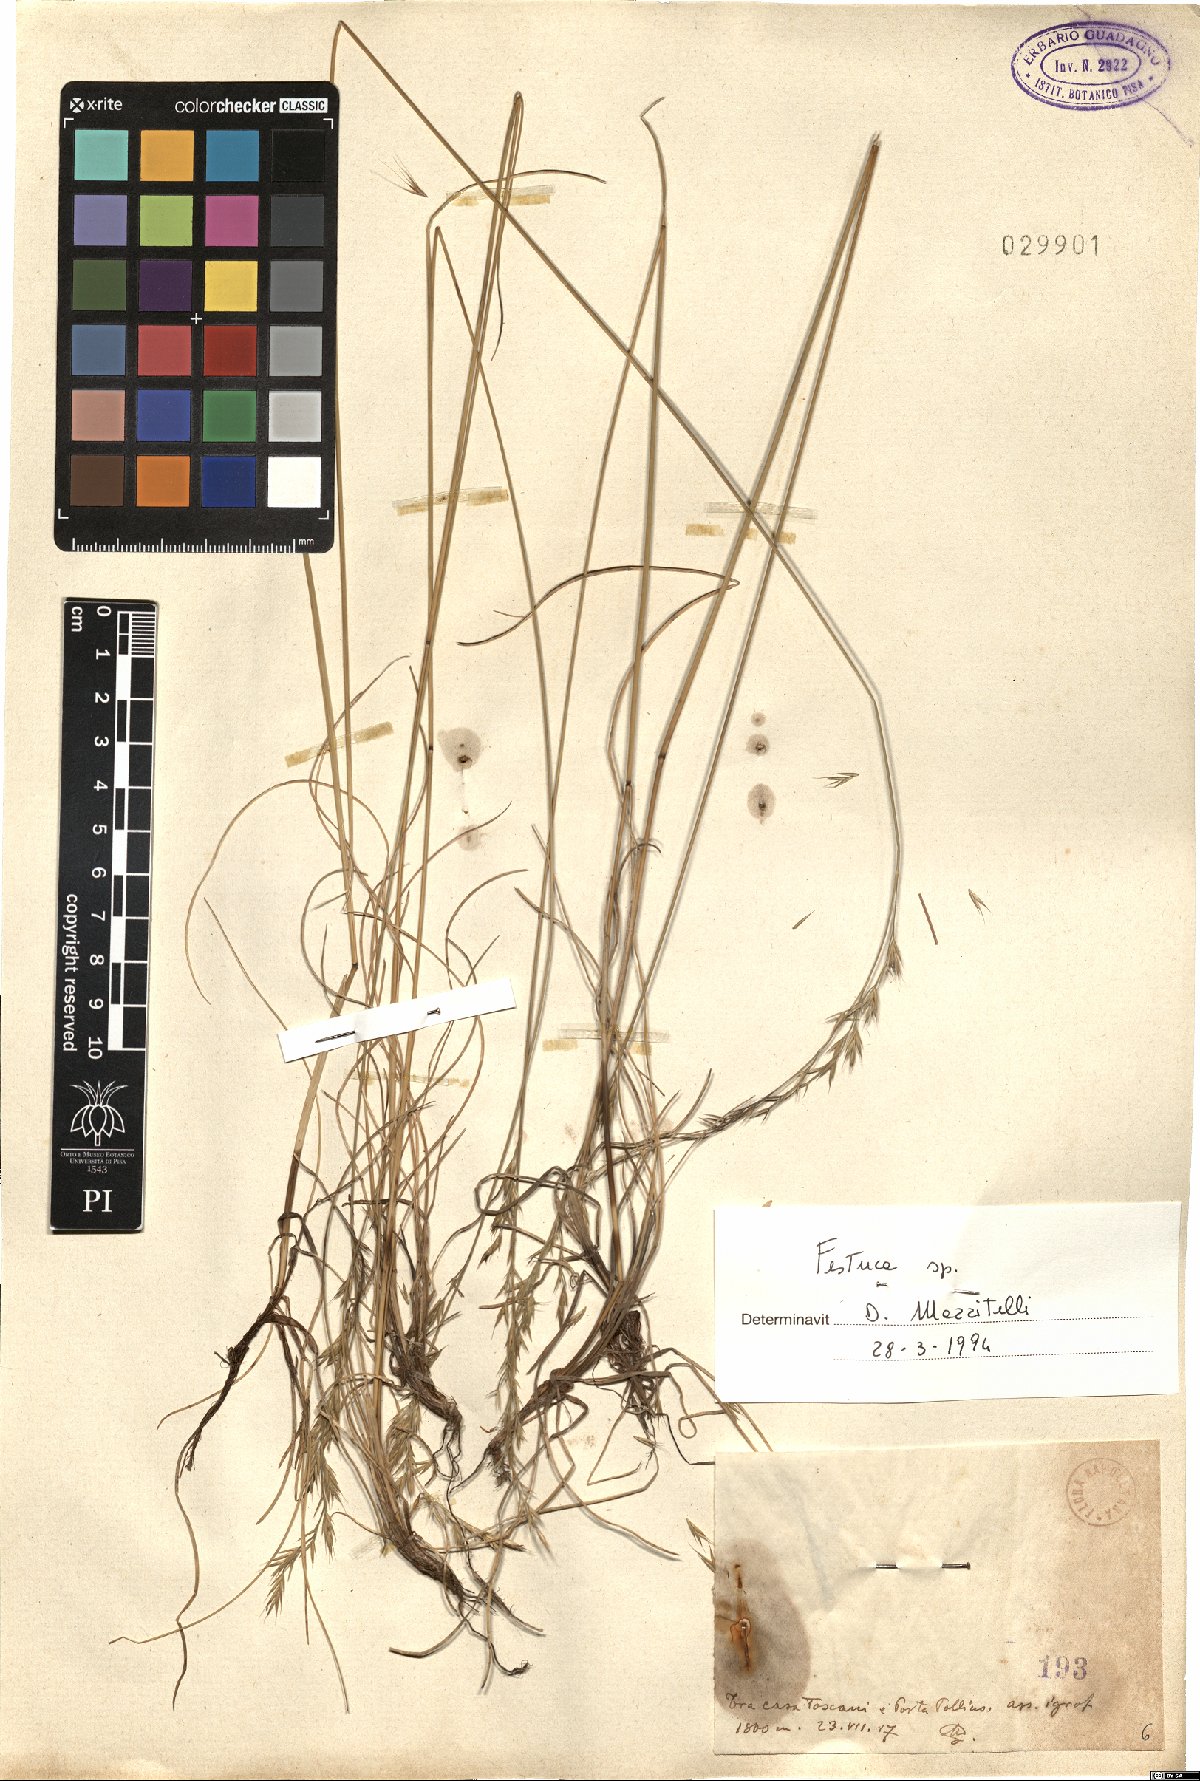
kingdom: Plantae
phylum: Tracheophyta
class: Liliopsida
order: Poales
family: Poaceae
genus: Festuca
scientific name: Festuca
